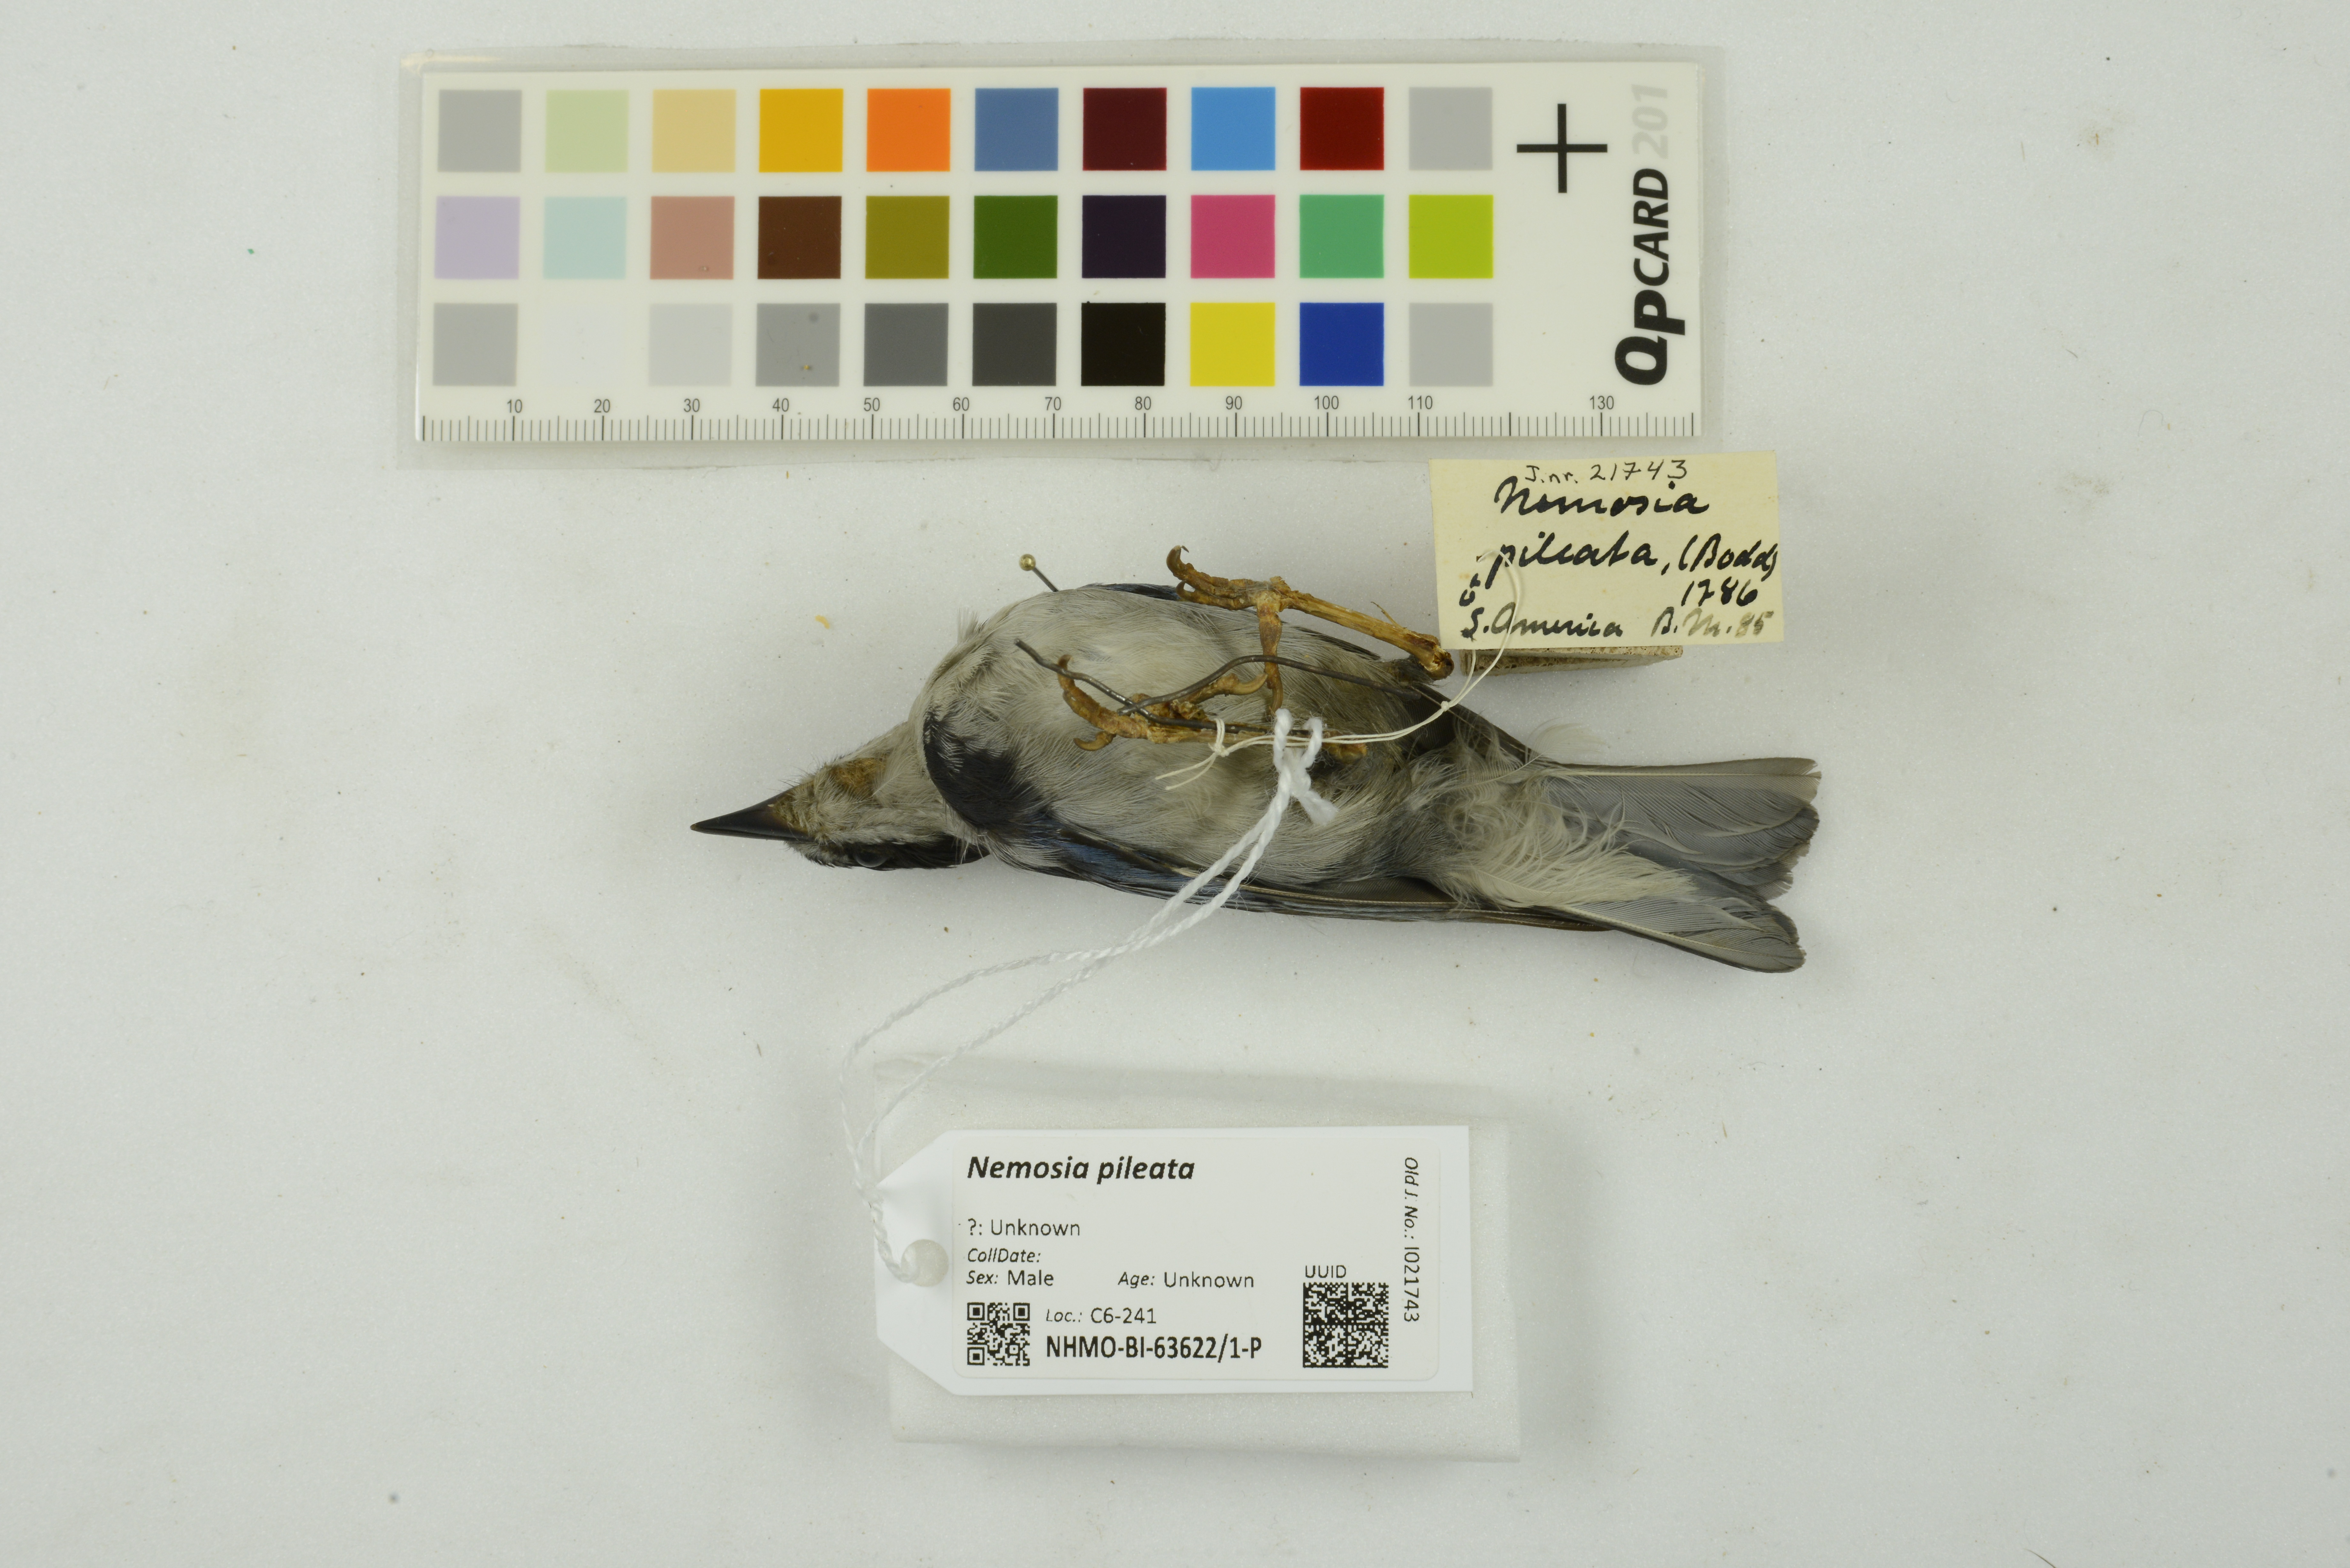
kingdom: Animalia
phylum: Chordata
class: Aves
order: Passeriformes
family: Thraupidae
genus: Nemosia
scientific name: Nemosia pileata
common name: Hooded tanager
